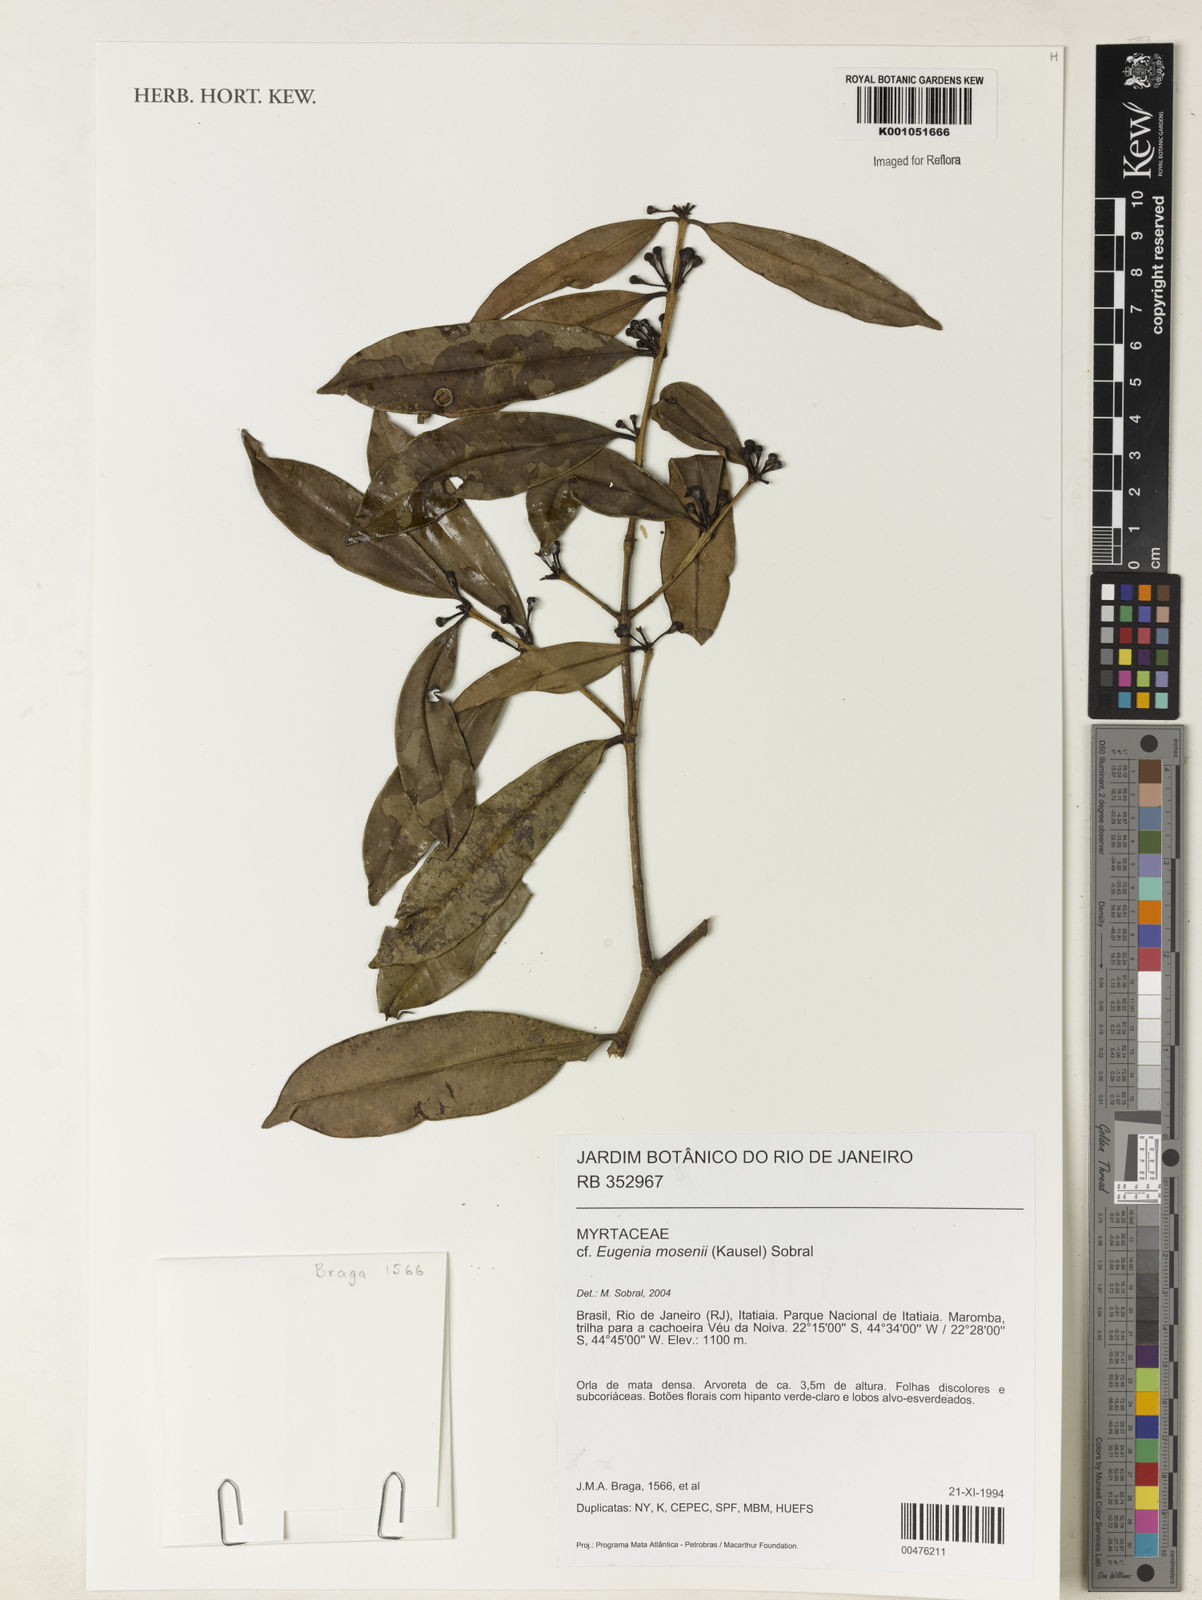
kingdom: Plantae
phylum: Tracheophyta
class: Magnoliopsida
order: Myrtales
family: Myrtaceae
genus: Eugenia
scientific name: Eugenia mosenii
